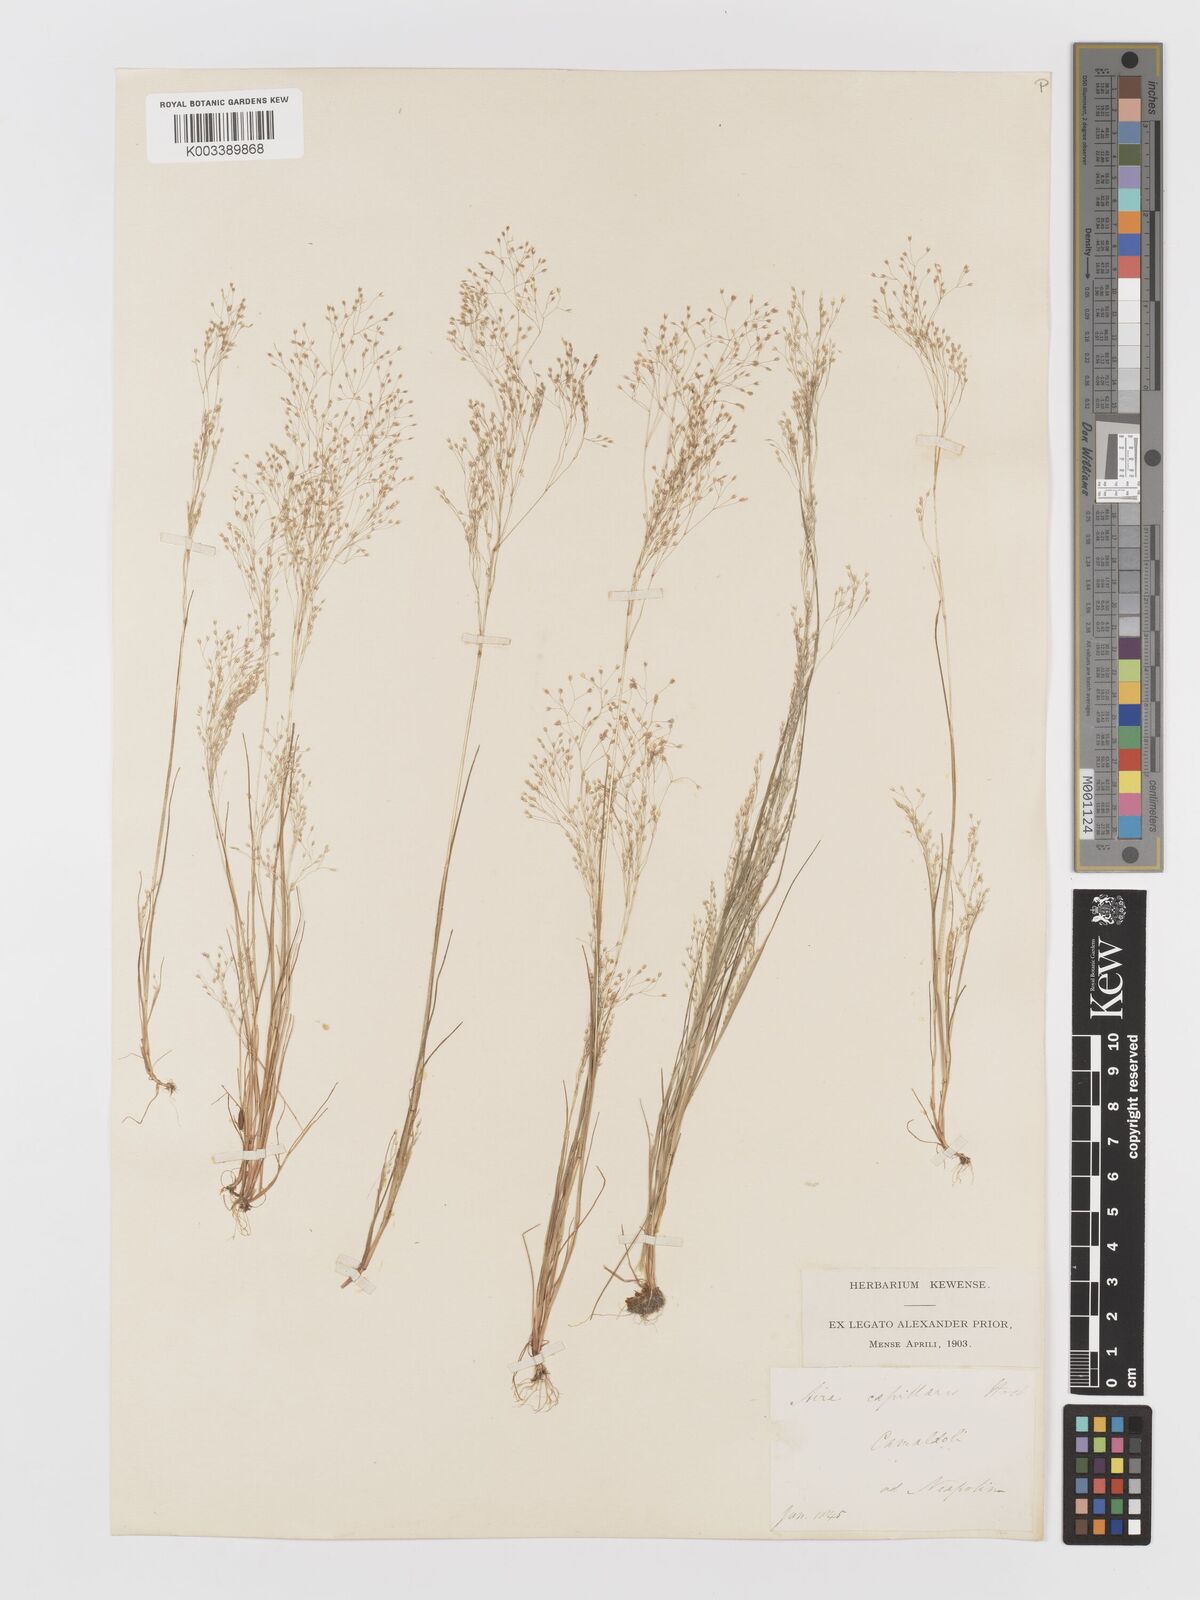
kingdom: Plantae
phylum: Tracheophyta
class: Liliopsida
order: Poales
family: Poaceae
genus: Aira
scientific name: Aira elegans
